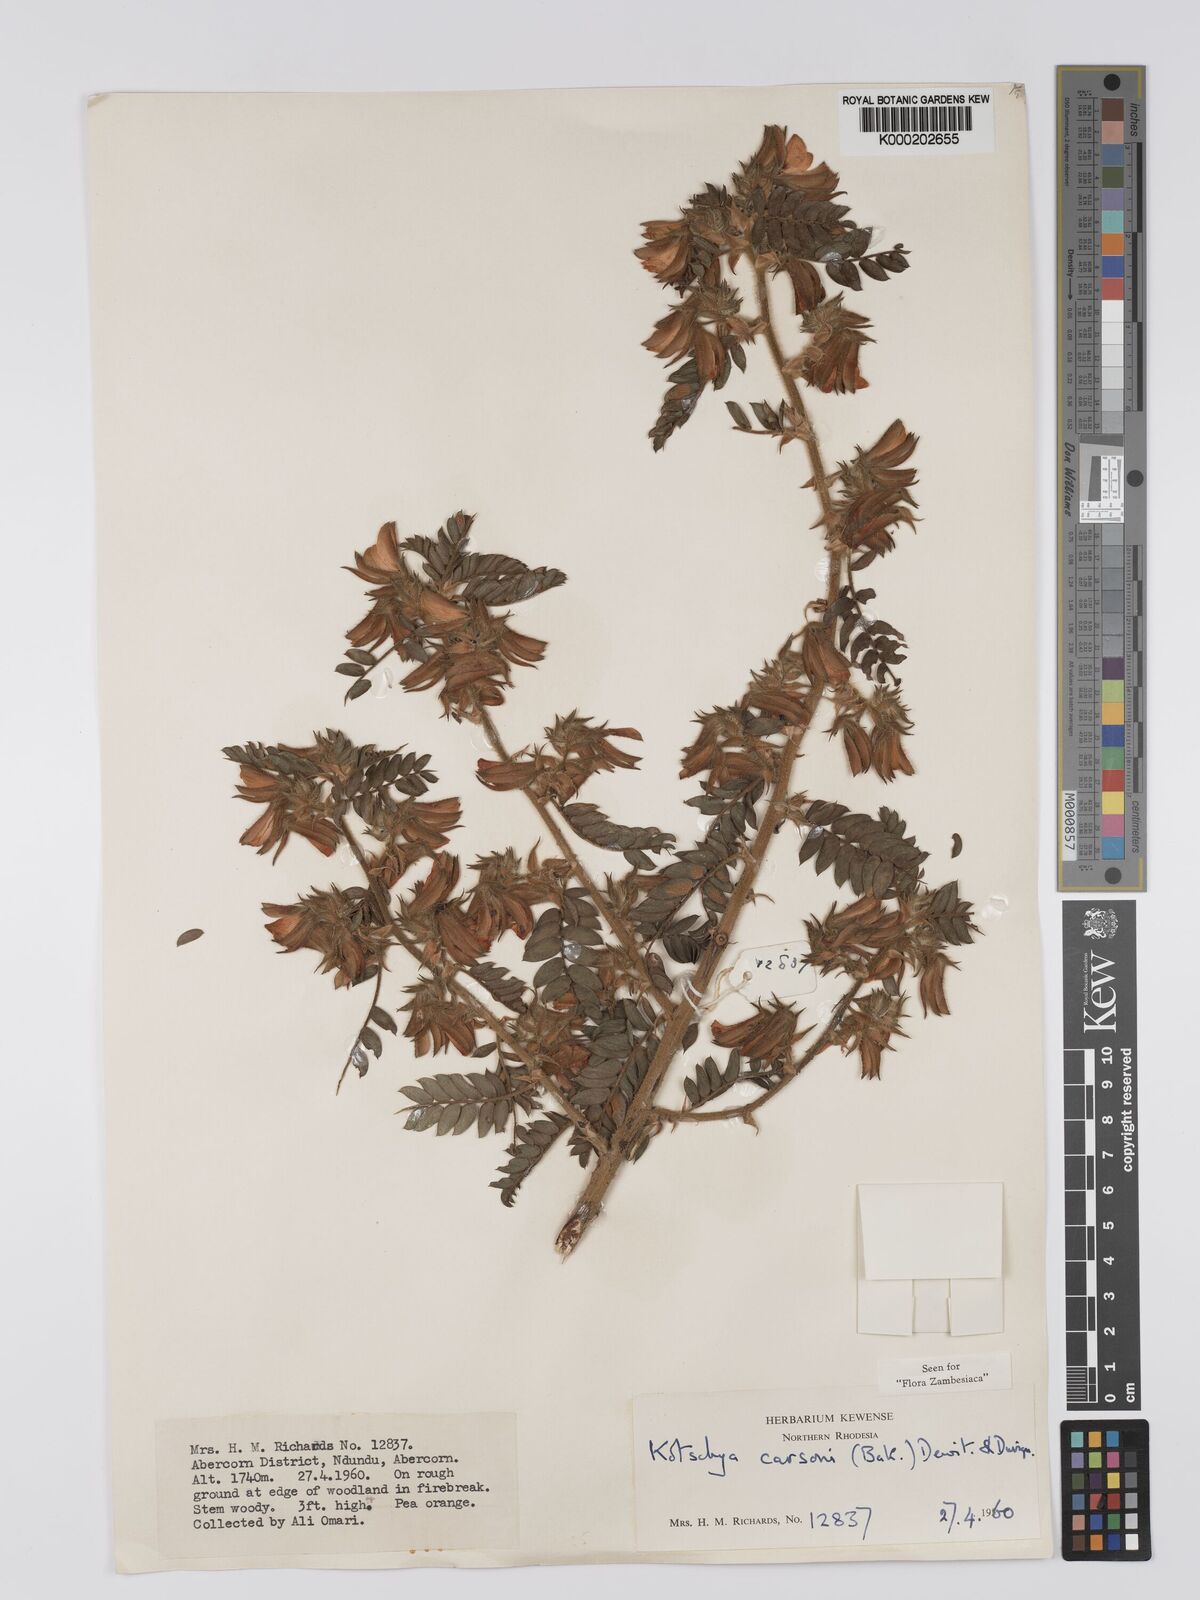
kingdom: Plantae
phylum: Tracheophyta
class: Magnoliopsida
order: Fabales
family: Fabaceae
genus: Kotschya
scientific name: Kotschya carsonii
